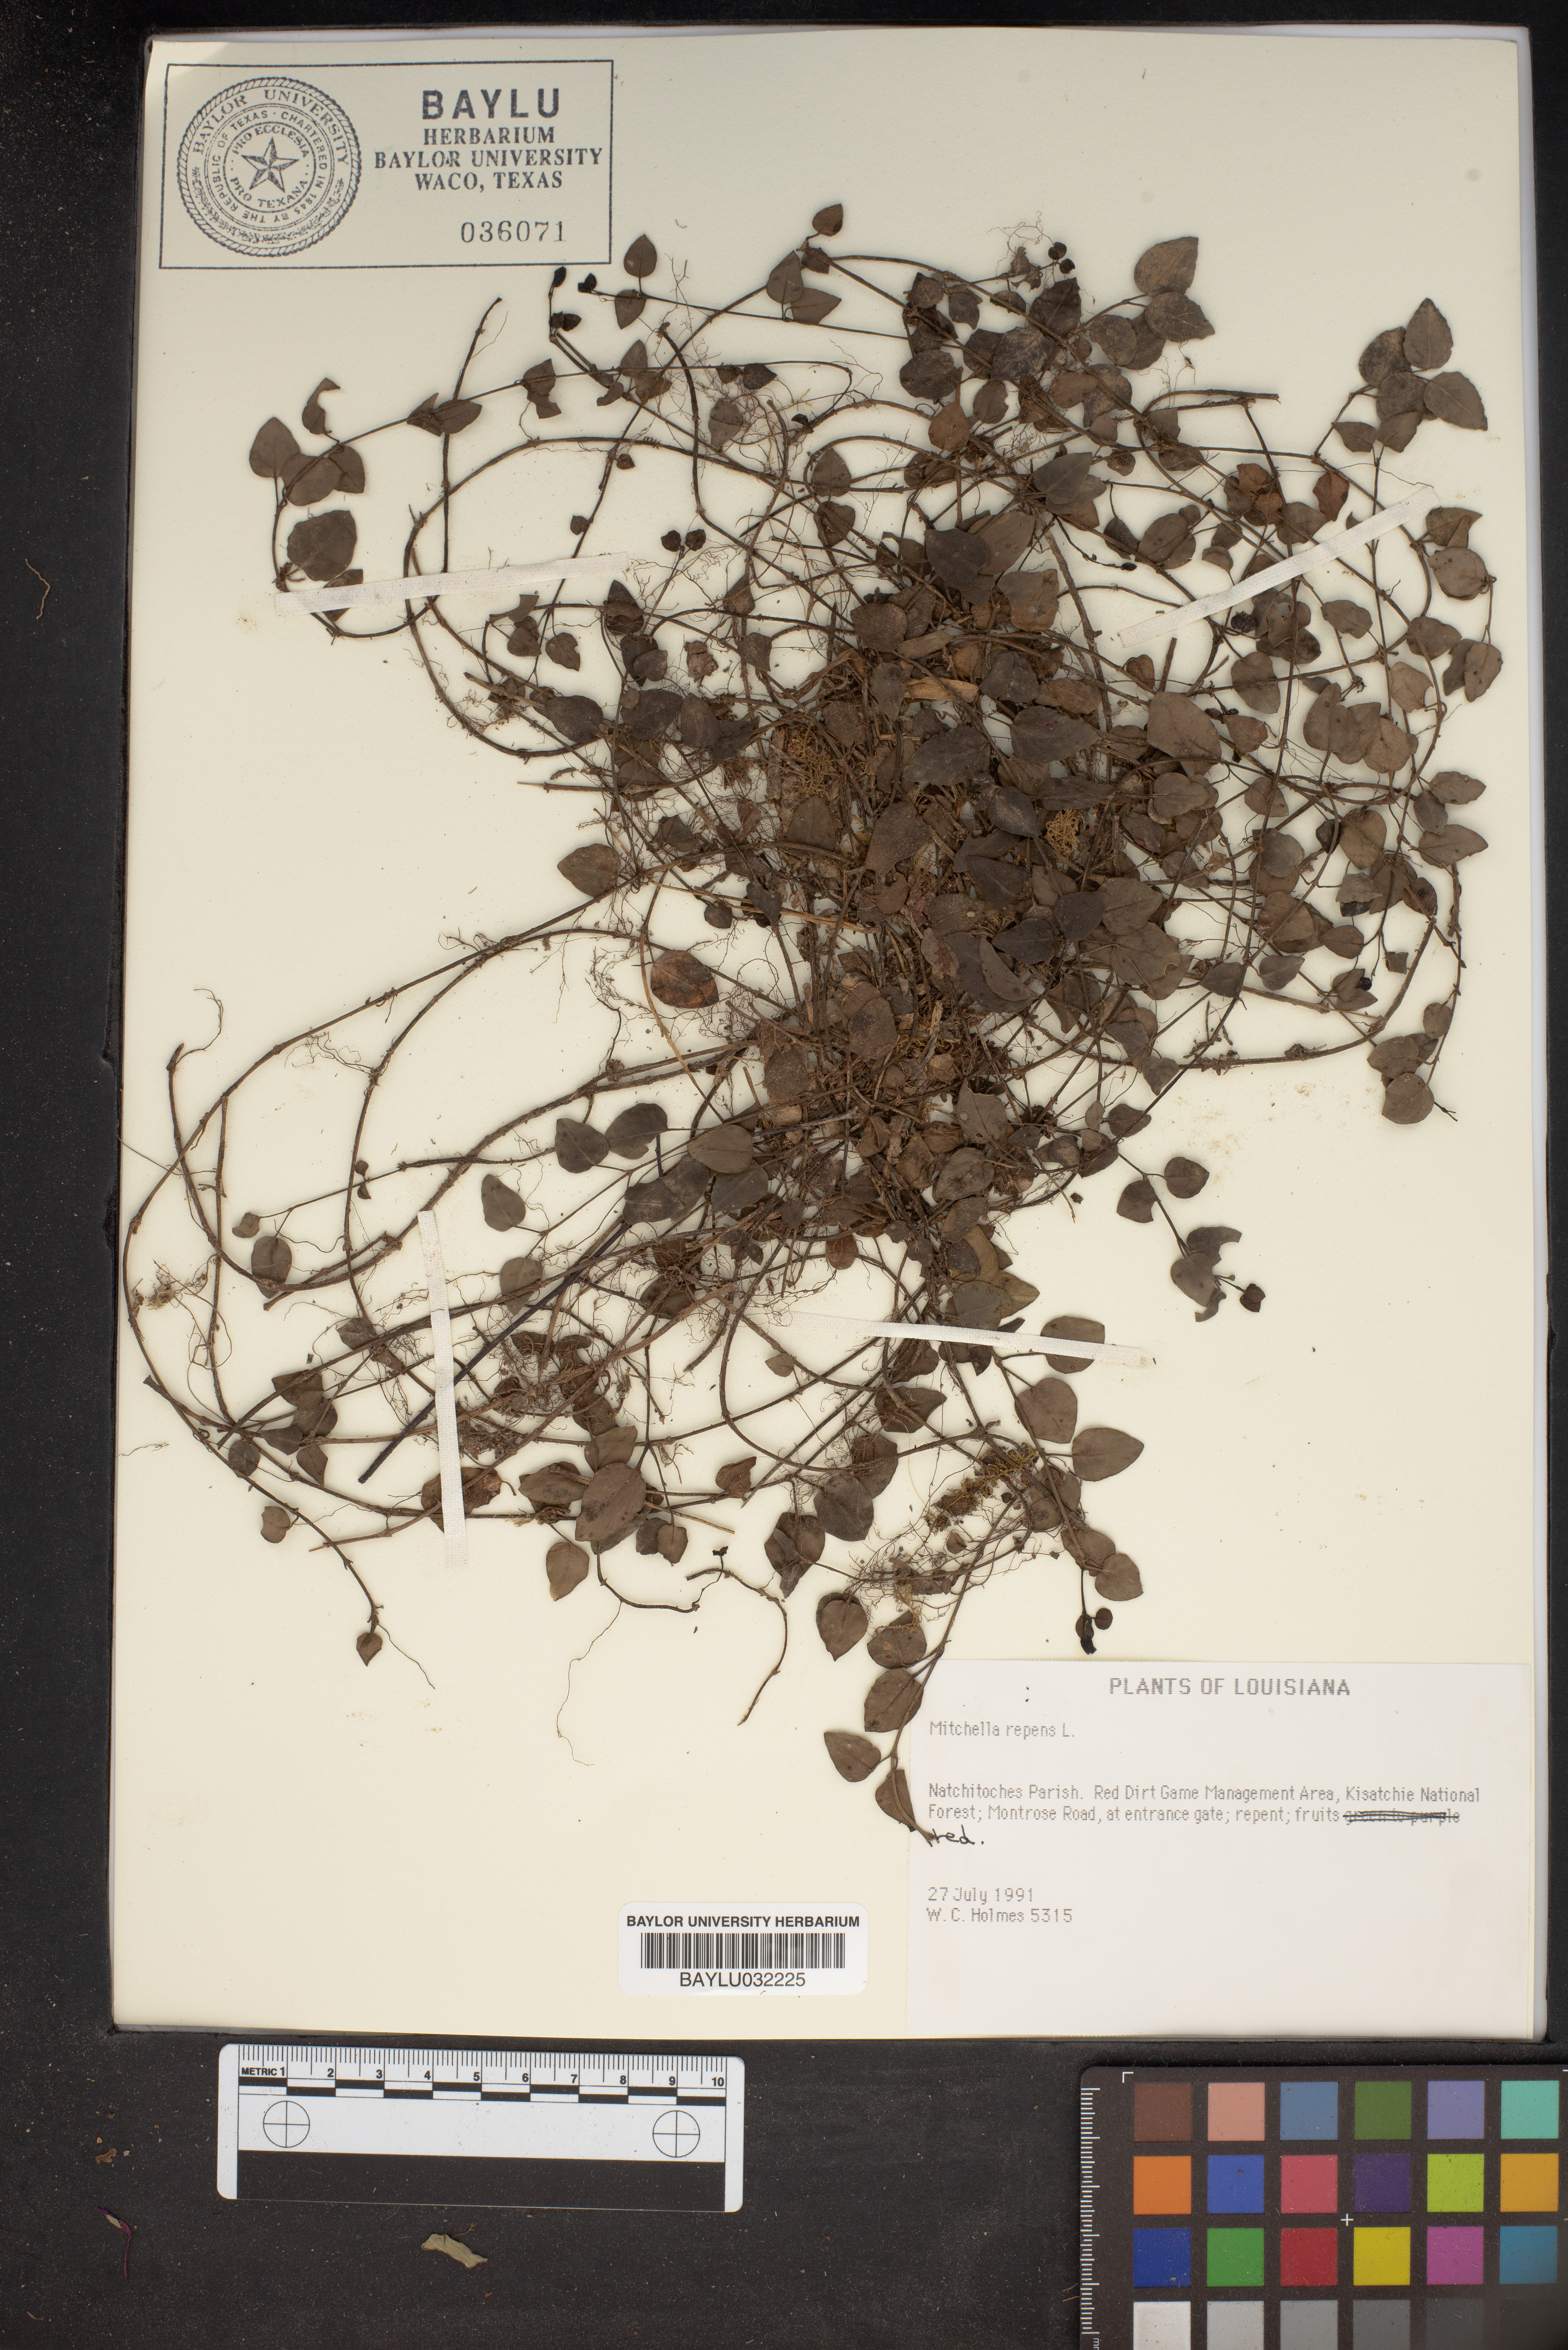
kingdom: Plantae
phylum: Tracheophyta
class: Magnoliopsida
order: Gentianales
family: Rubiaceae
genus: Mitchella
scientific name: Mitchella repens
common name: Partridge-berry
